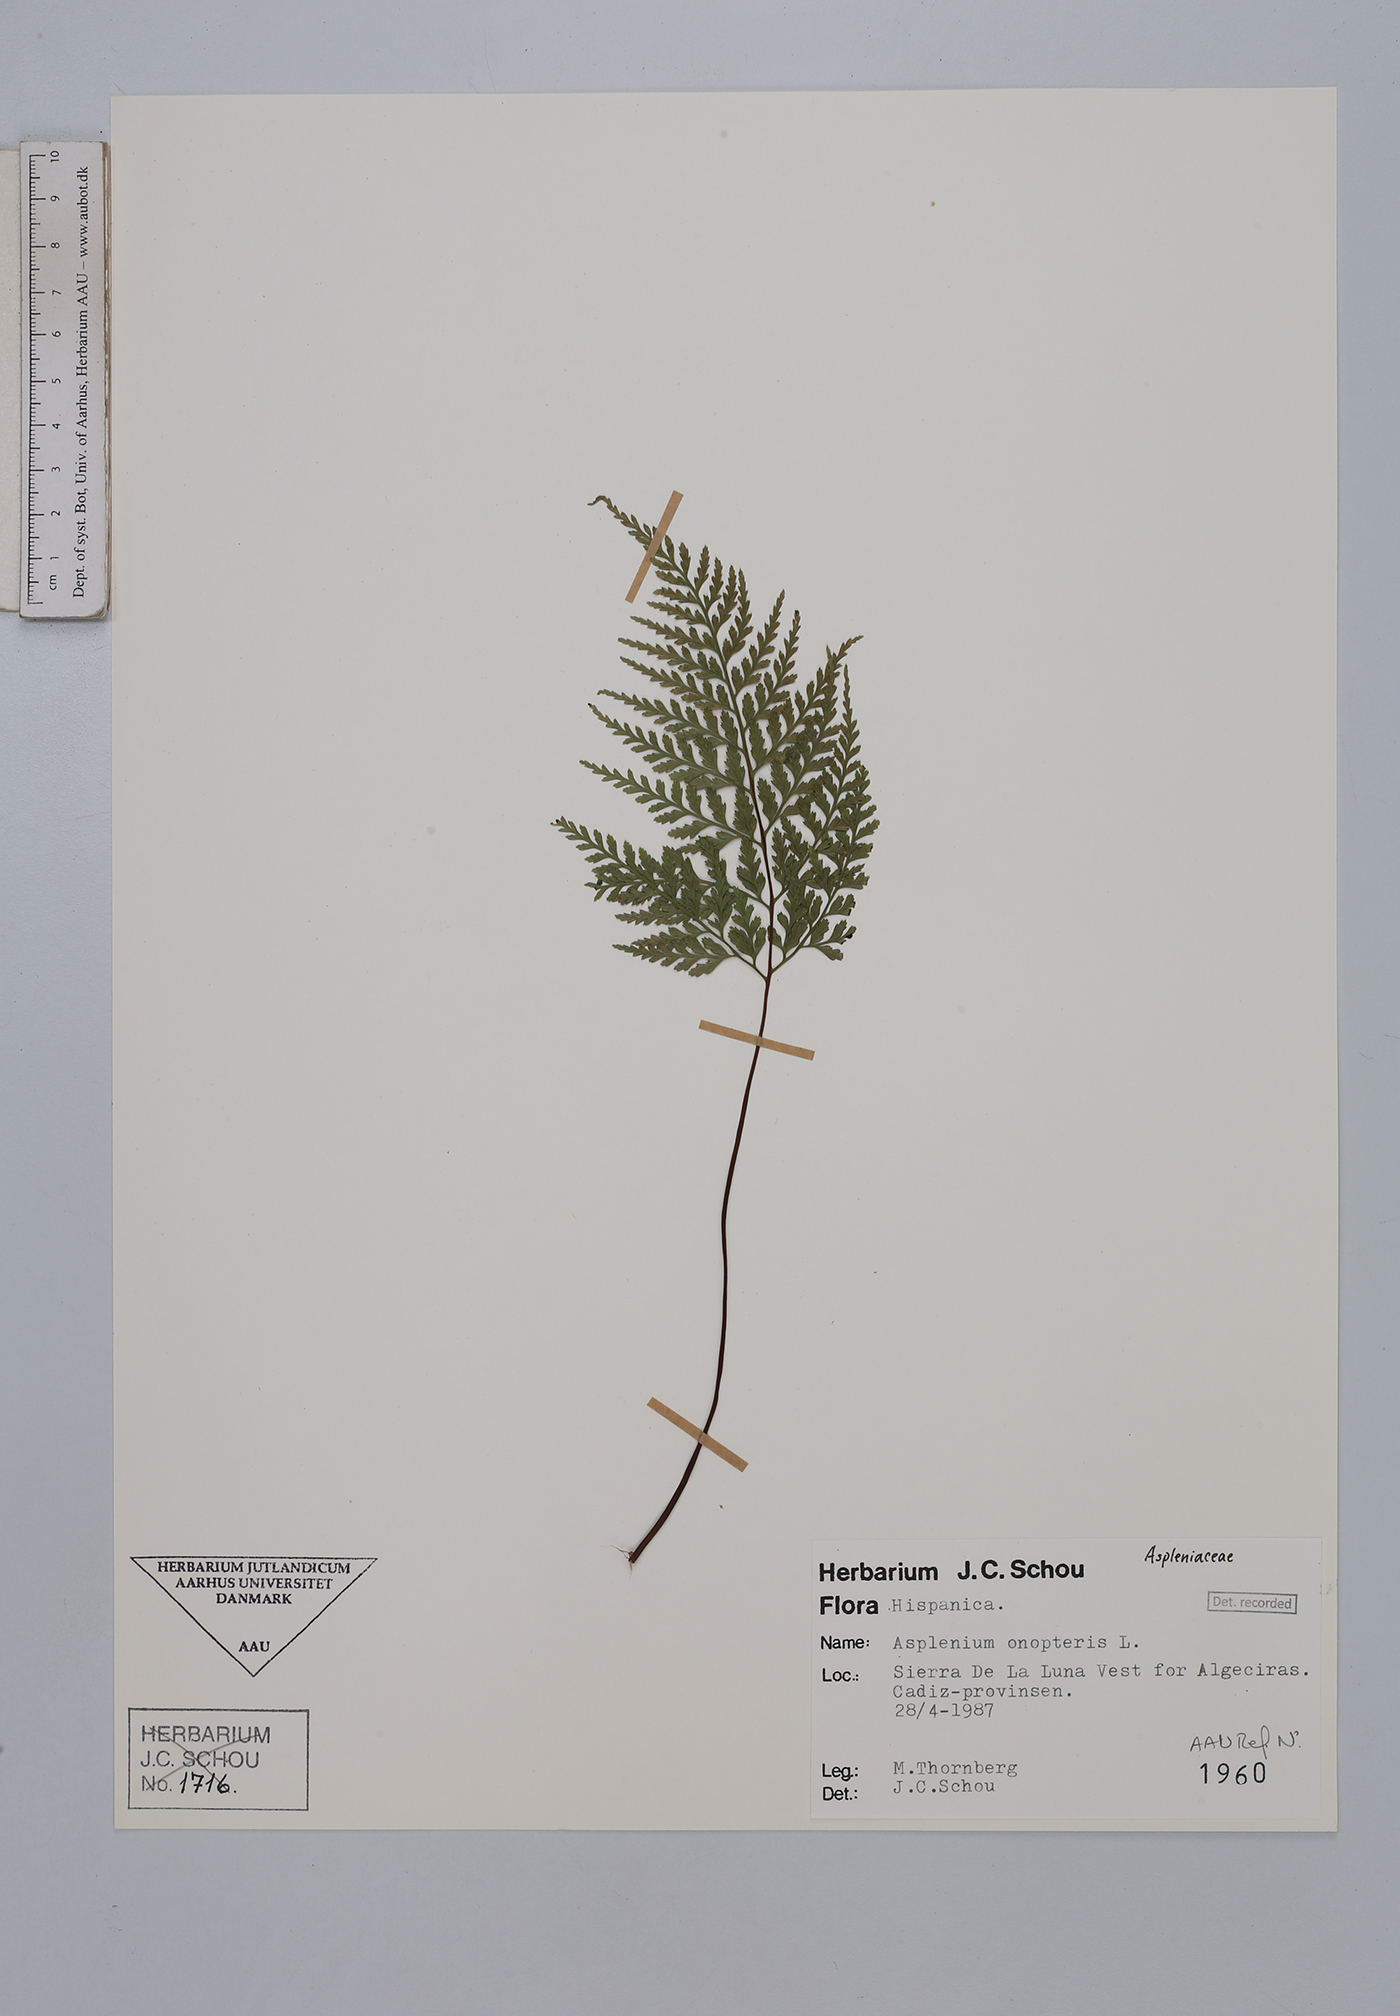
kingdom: Plantae
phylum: Tracheophyta
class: Polypodiopsida
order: Polypodiales
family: Aspleniaceae
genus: Asplenium
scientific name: Asplenium onopteris
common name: Irish spleenwort
